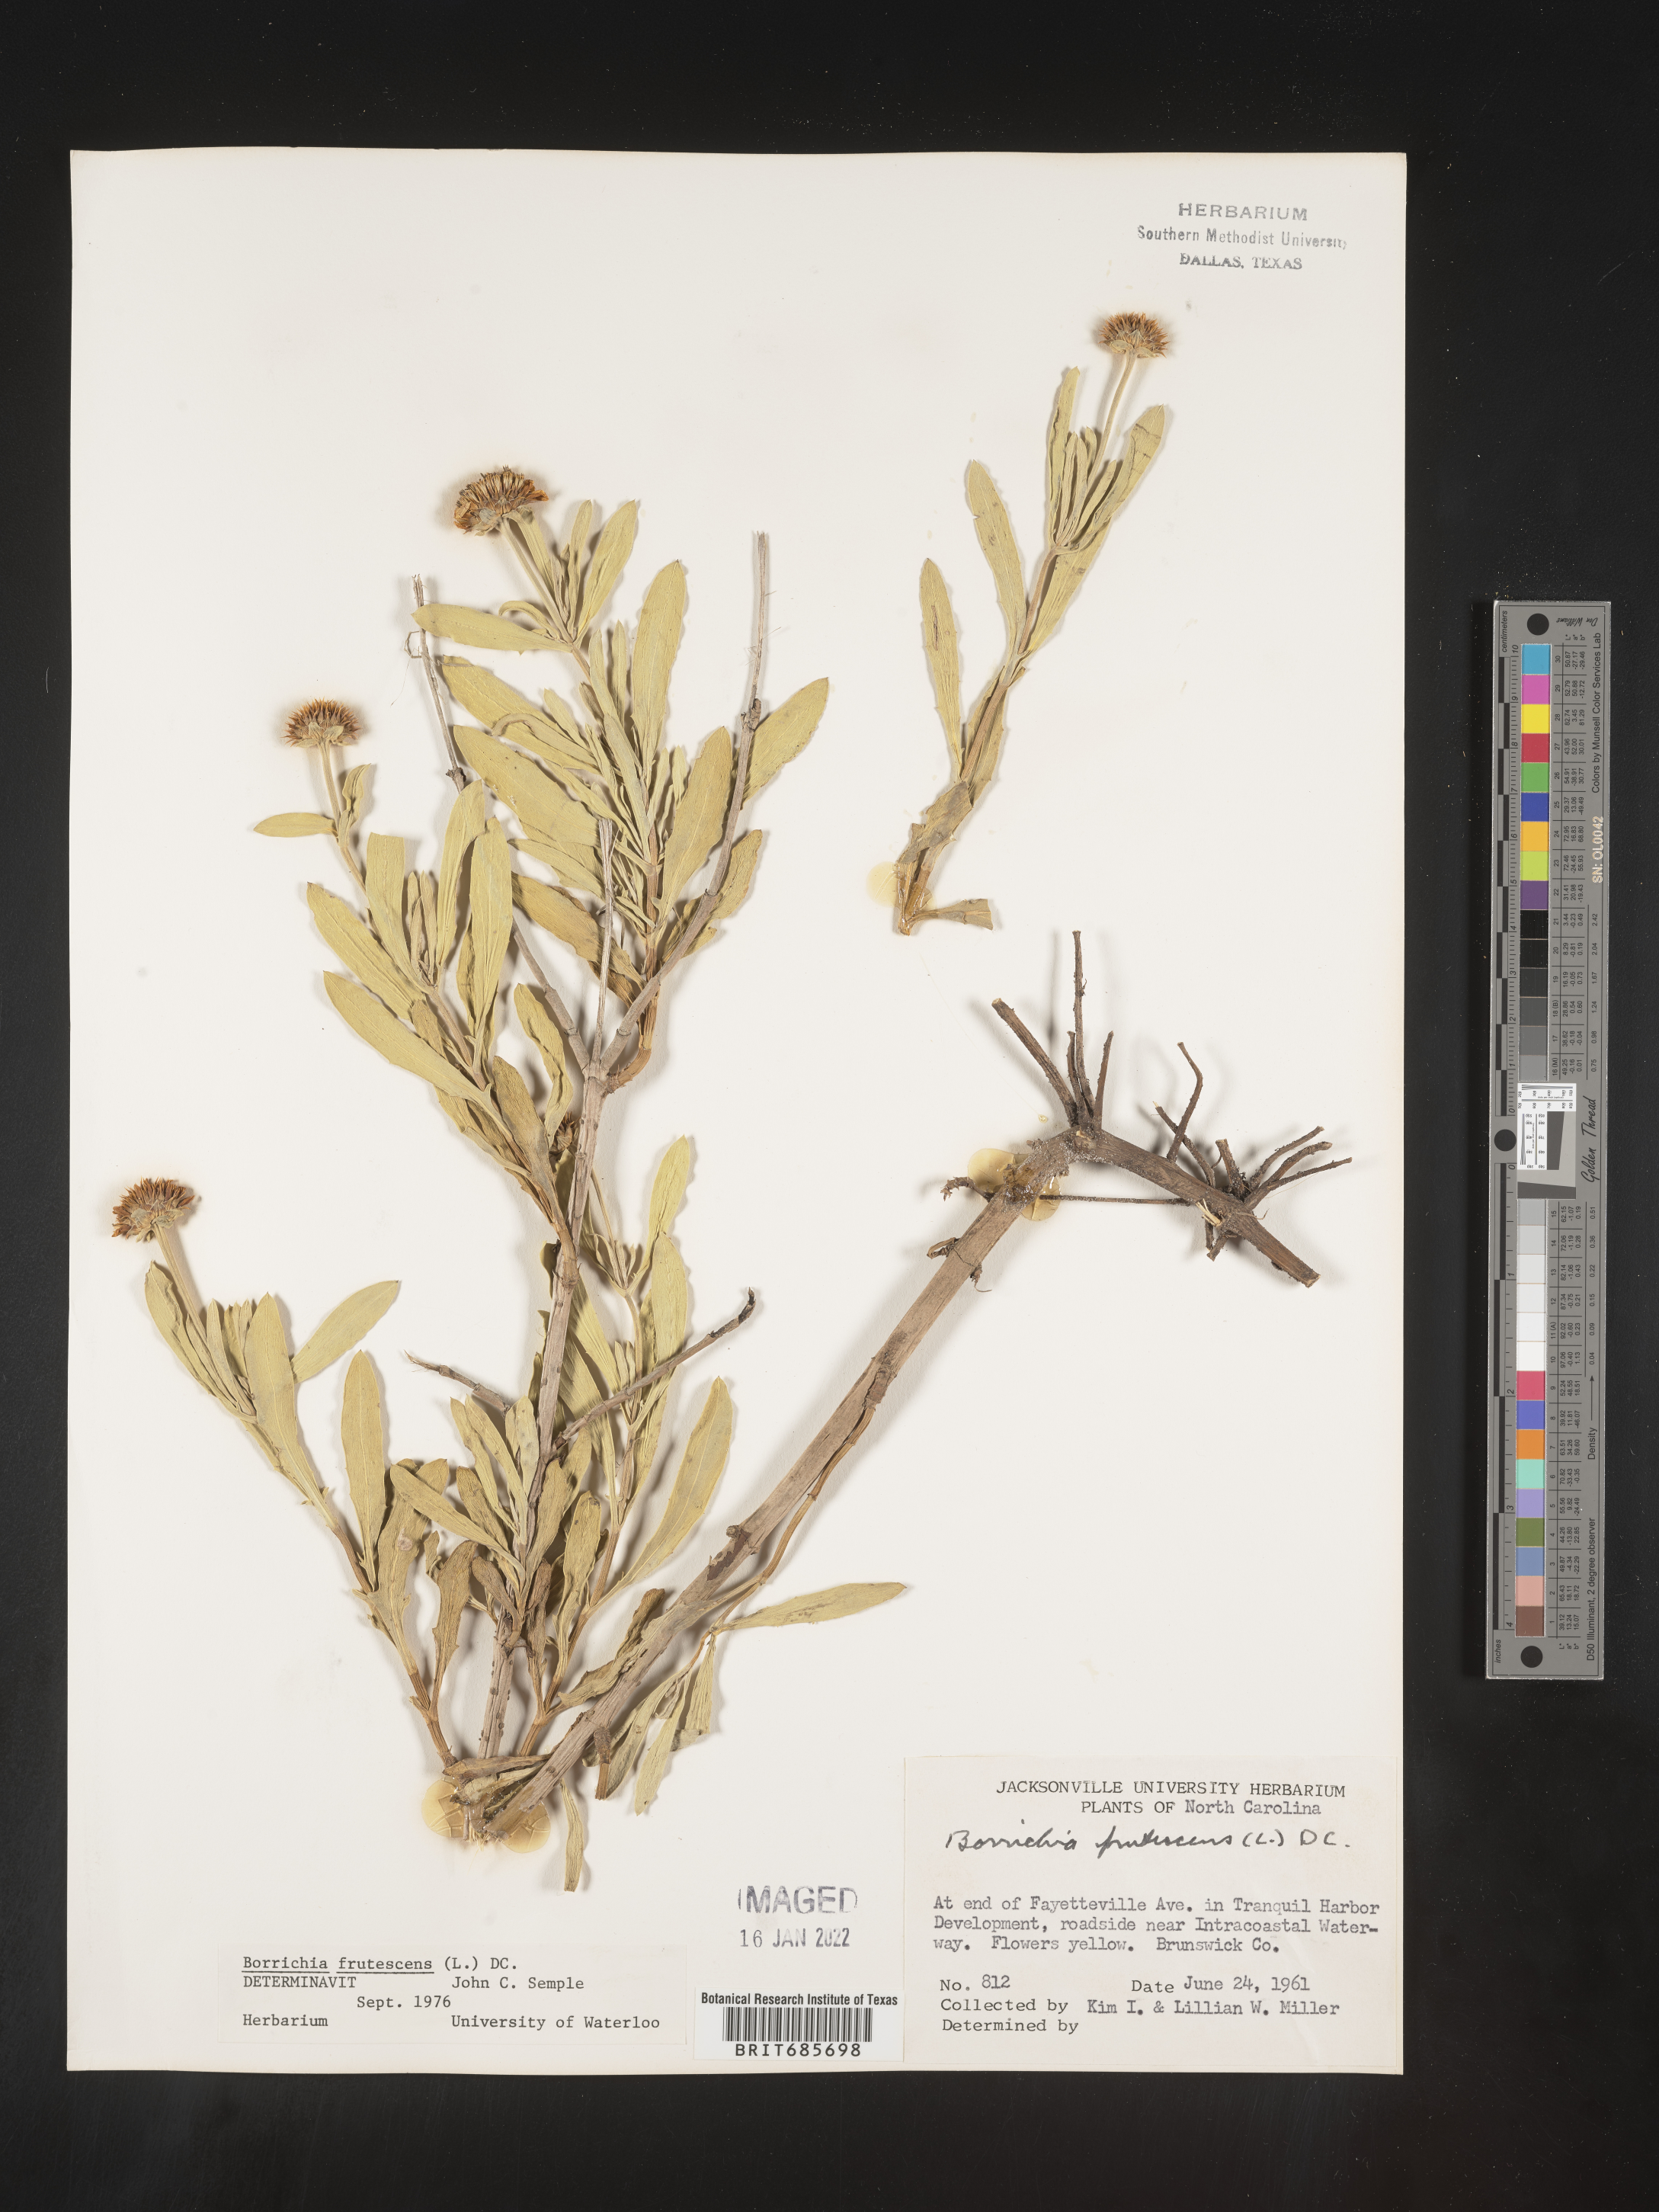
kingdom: Plantae
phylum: Tracheophyta
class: Magnoliopsida
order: Asterales
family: Asteraceae
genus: Borrichia
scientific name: Borrichia frutescens
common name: Sea oxeye
